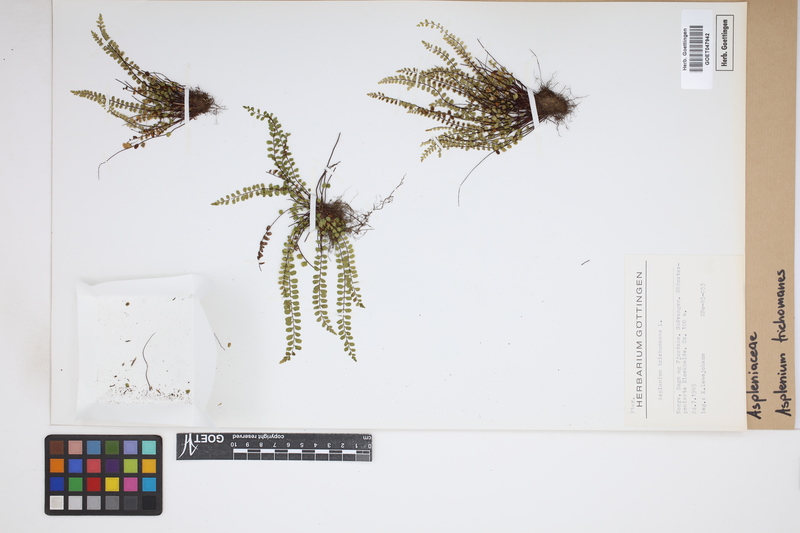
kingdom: Plantae
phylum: Tracheophyta
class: Polypodiopsida
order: Polypodiales
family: Aspleniaceae
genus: Asplenium
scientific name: Asplenium trichomanes
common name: Maidenhair spleenwort
